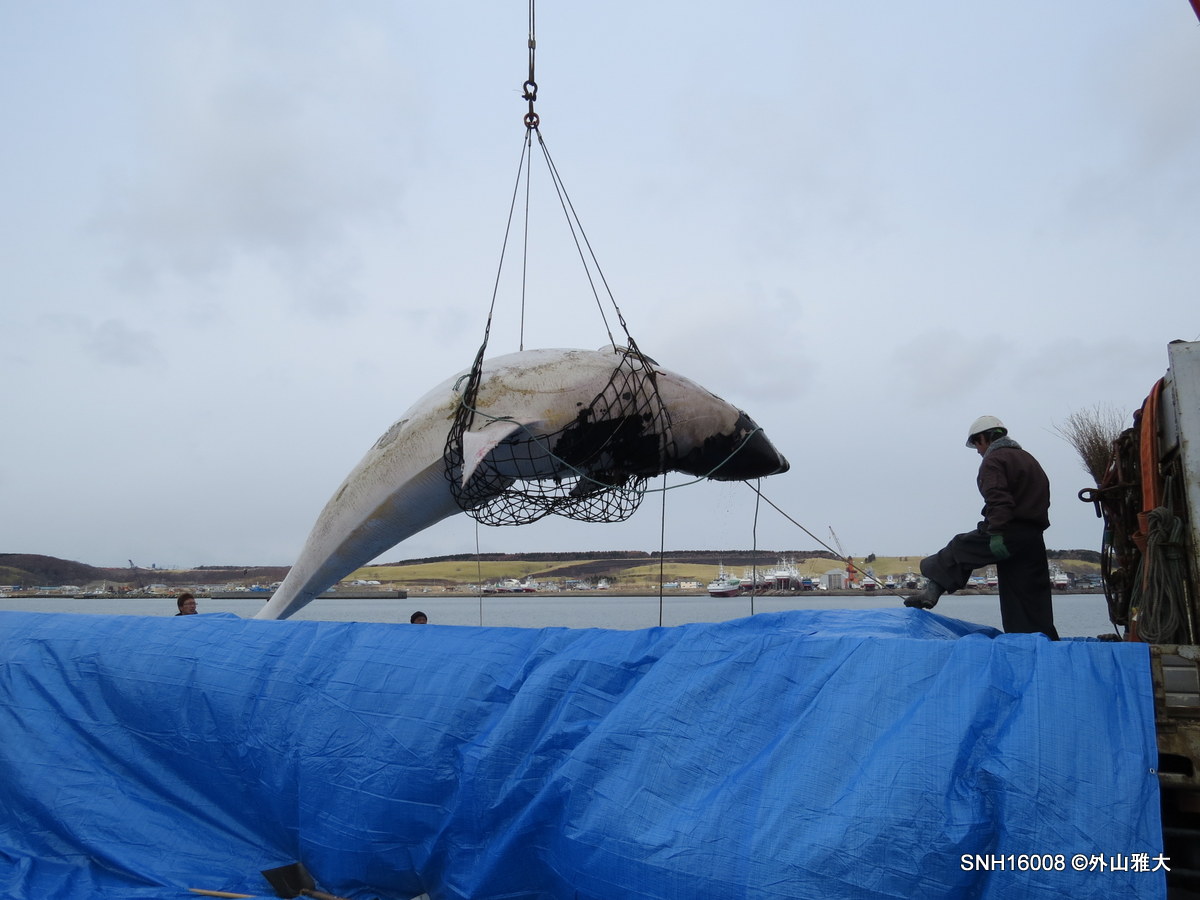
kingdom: Animalia
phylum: Chordata
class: Mammalia
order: Cetacea
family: Delphinidae
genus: Orcinus
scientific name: Orcinus orca
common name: Killer whale
